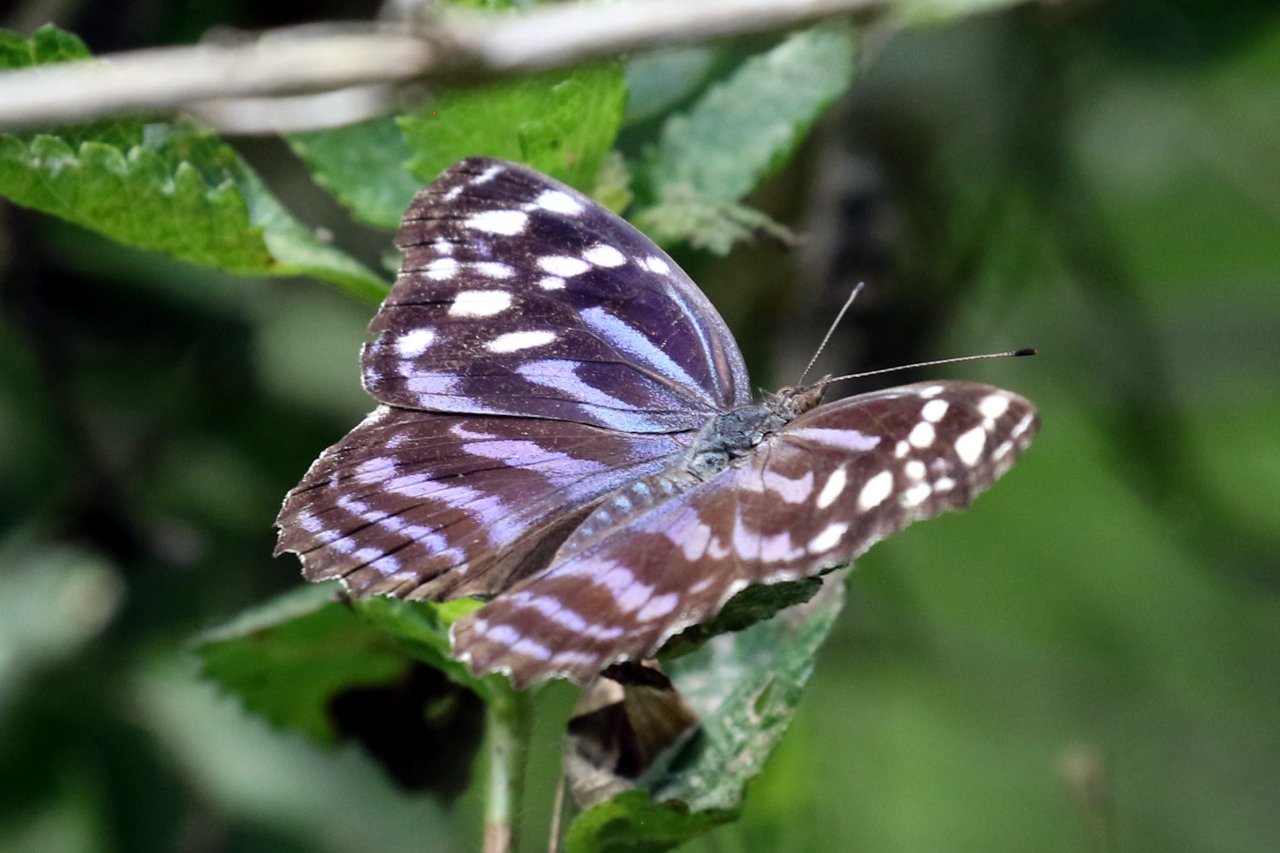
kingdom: Animalia
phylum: Arthropoda
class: Insecta
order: Lepidoptera
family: Nymphalidae
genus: Myscelia
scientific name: Myscelia ethusa
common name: Mexican Bluewing
